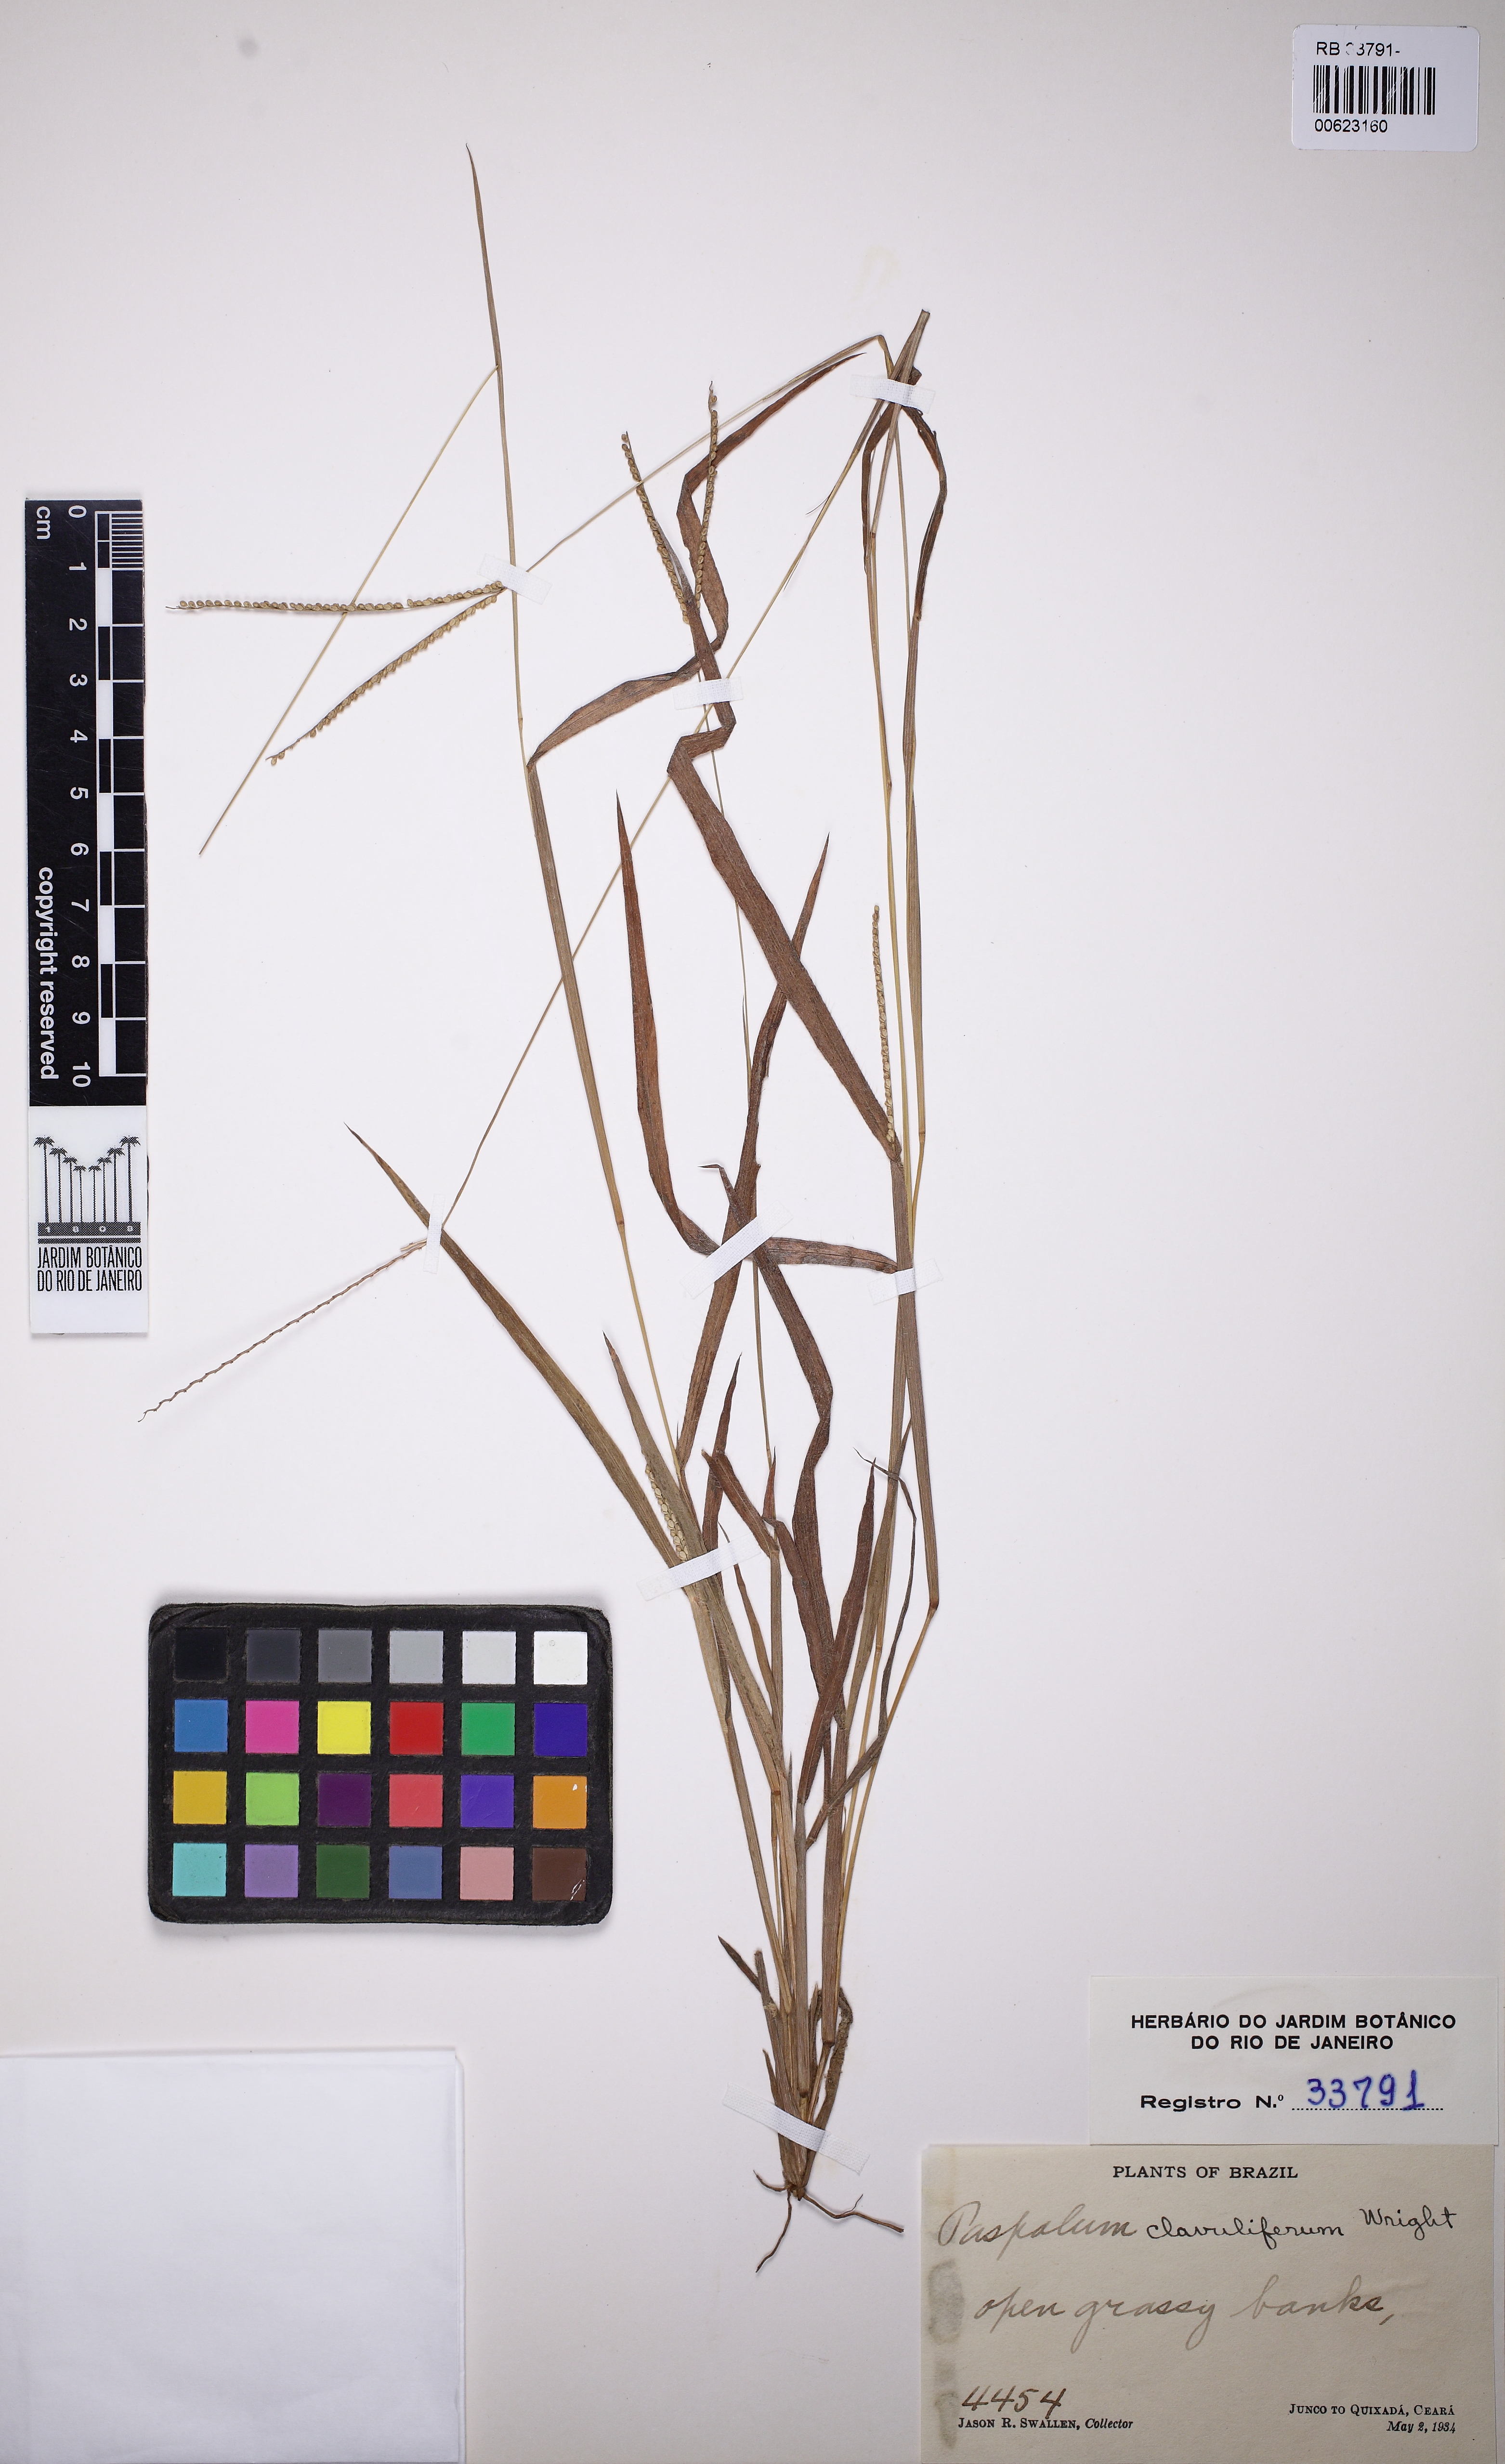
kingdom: Plantae
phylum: Tracheophyta
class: Liliopsida
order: Poales
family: Poaceae
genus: Paspalum
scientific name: Paspalum clavuliferum
